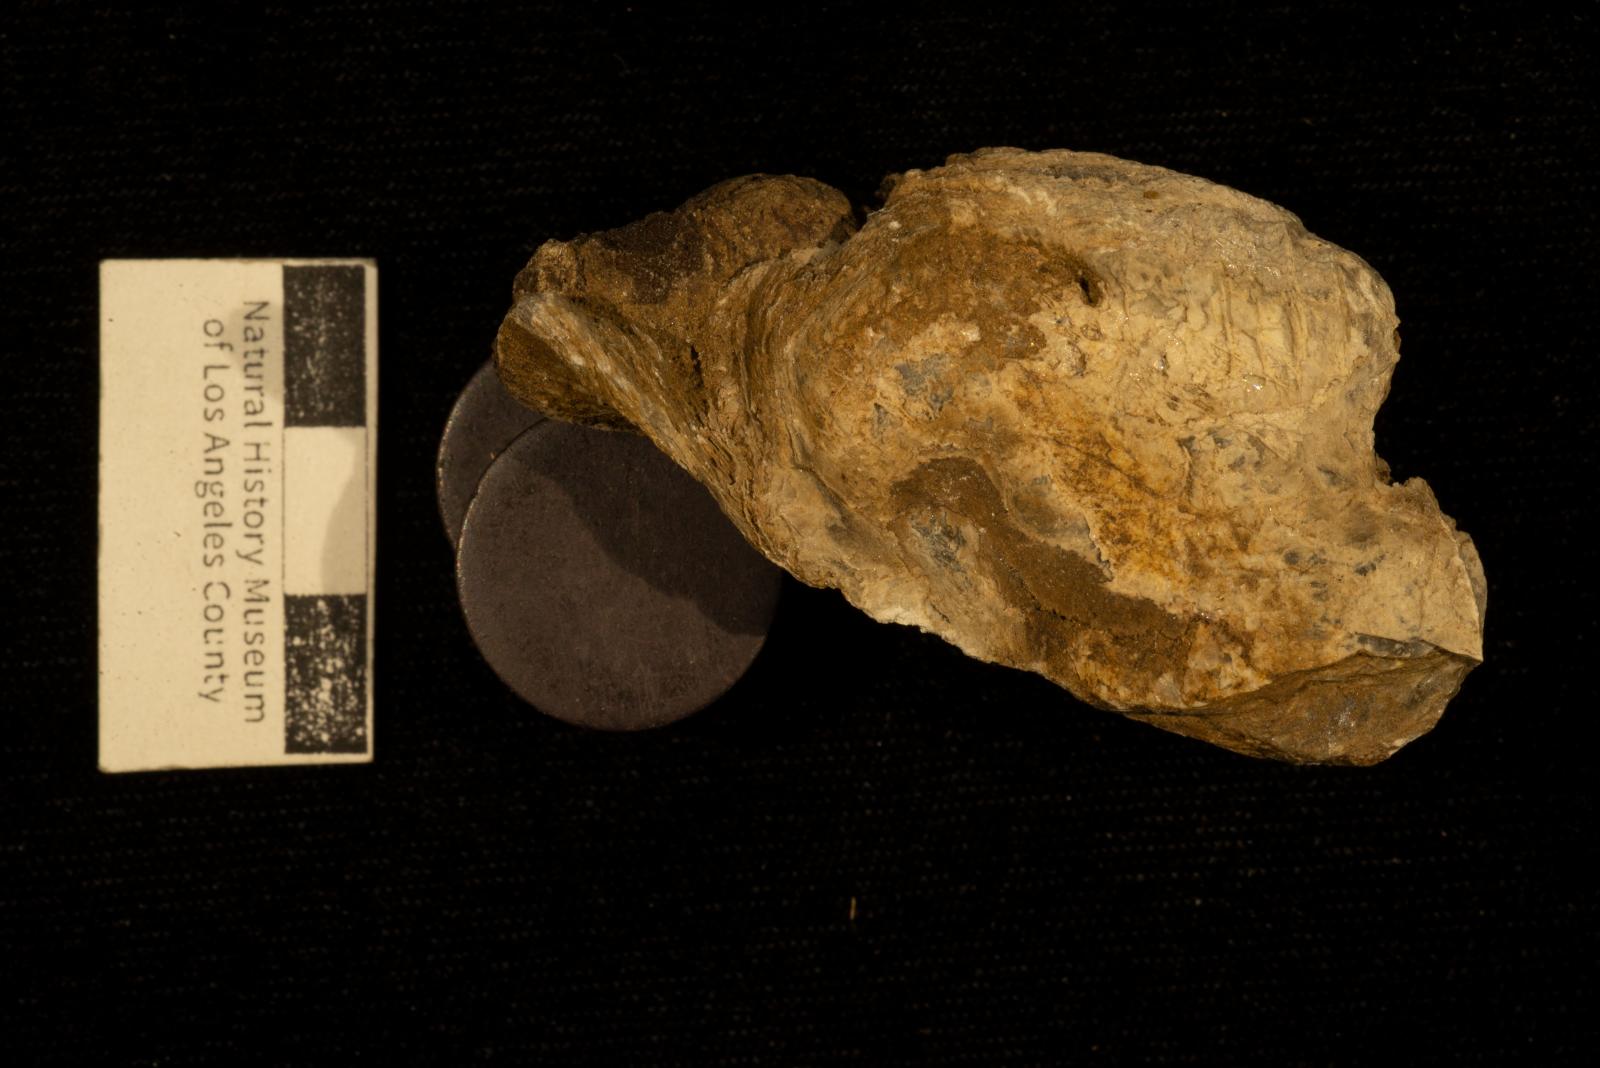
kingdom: Animalia
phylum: Mollusca
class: Bivalvia
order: Ostreida
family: Ostreidae
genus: Acutostrea
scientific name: Acutostrea
